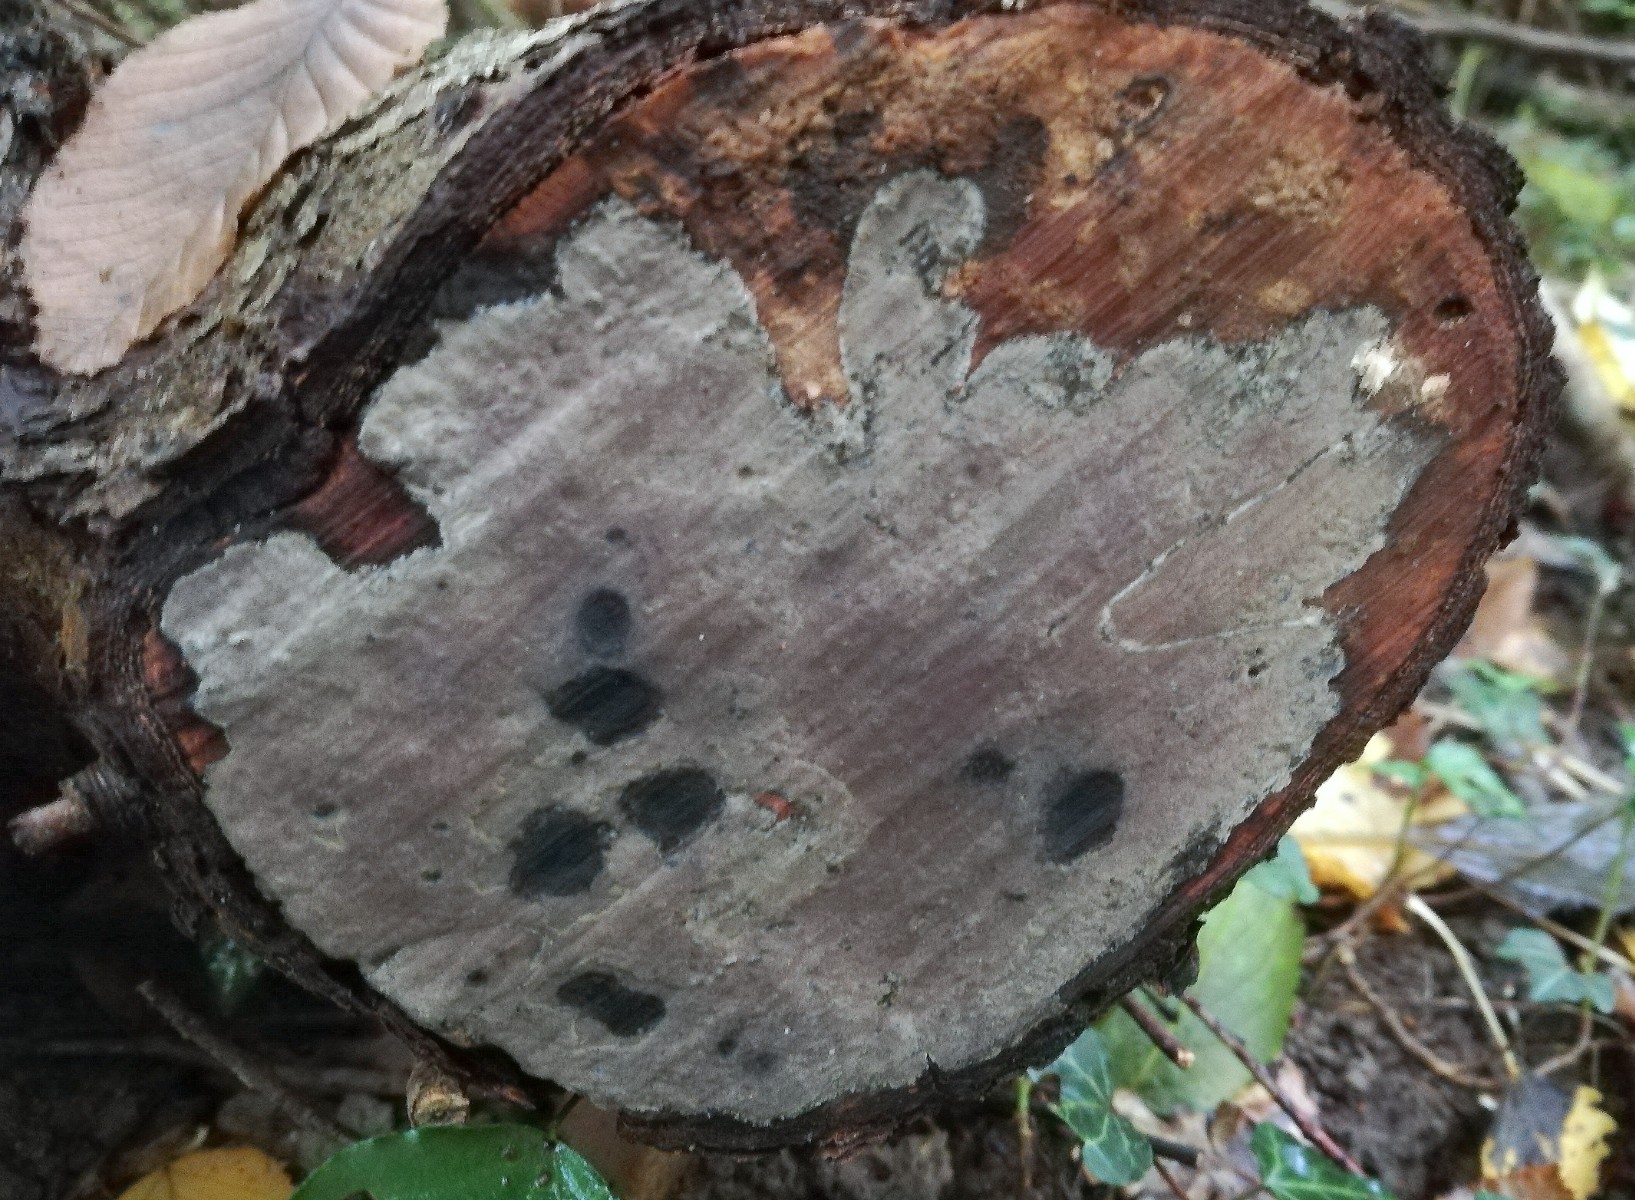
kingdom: Fungi
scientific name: Fungi
